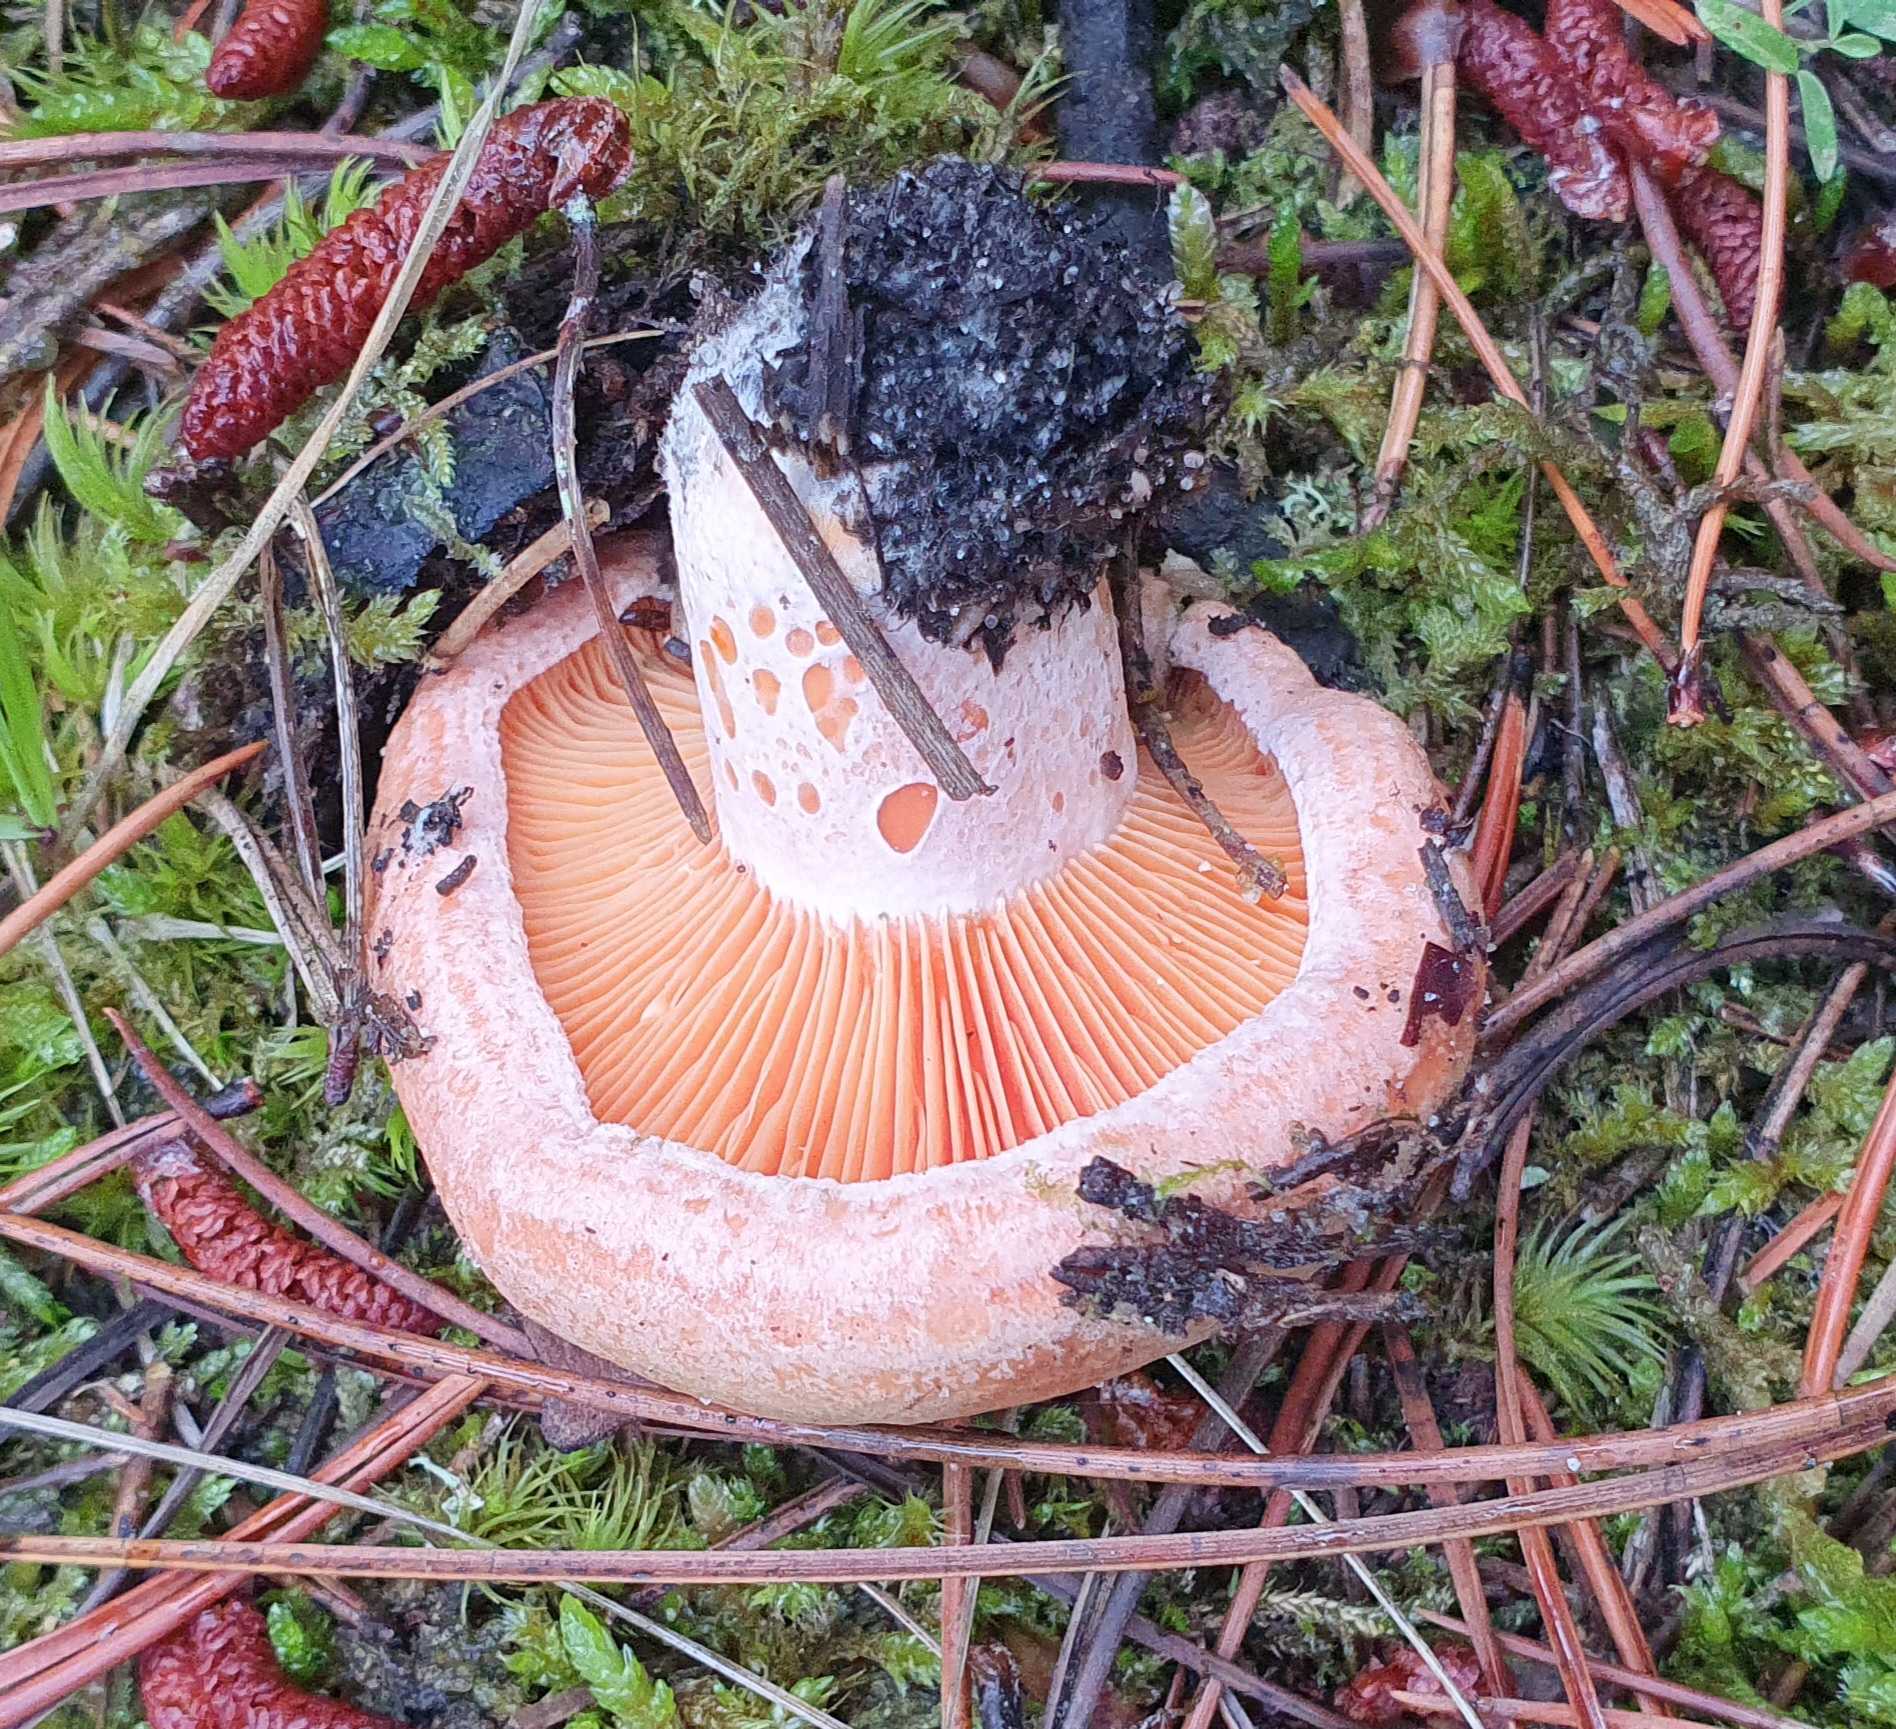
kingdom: Fungi
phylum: Basidiomycota
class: Agaricomycetes
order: Russulales
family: Russulaceae
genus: Lactarius
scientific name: Lactarius deliciosus
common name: velsmagende mælkehat
